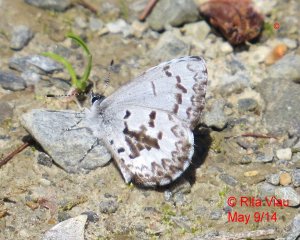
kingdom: Animalia
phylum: Arthropoda
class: Insecta
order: Lepidoptera
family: Lycaenidae
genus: Celastrina
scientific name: Celastrina lucia
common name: Northern Spring Azure
